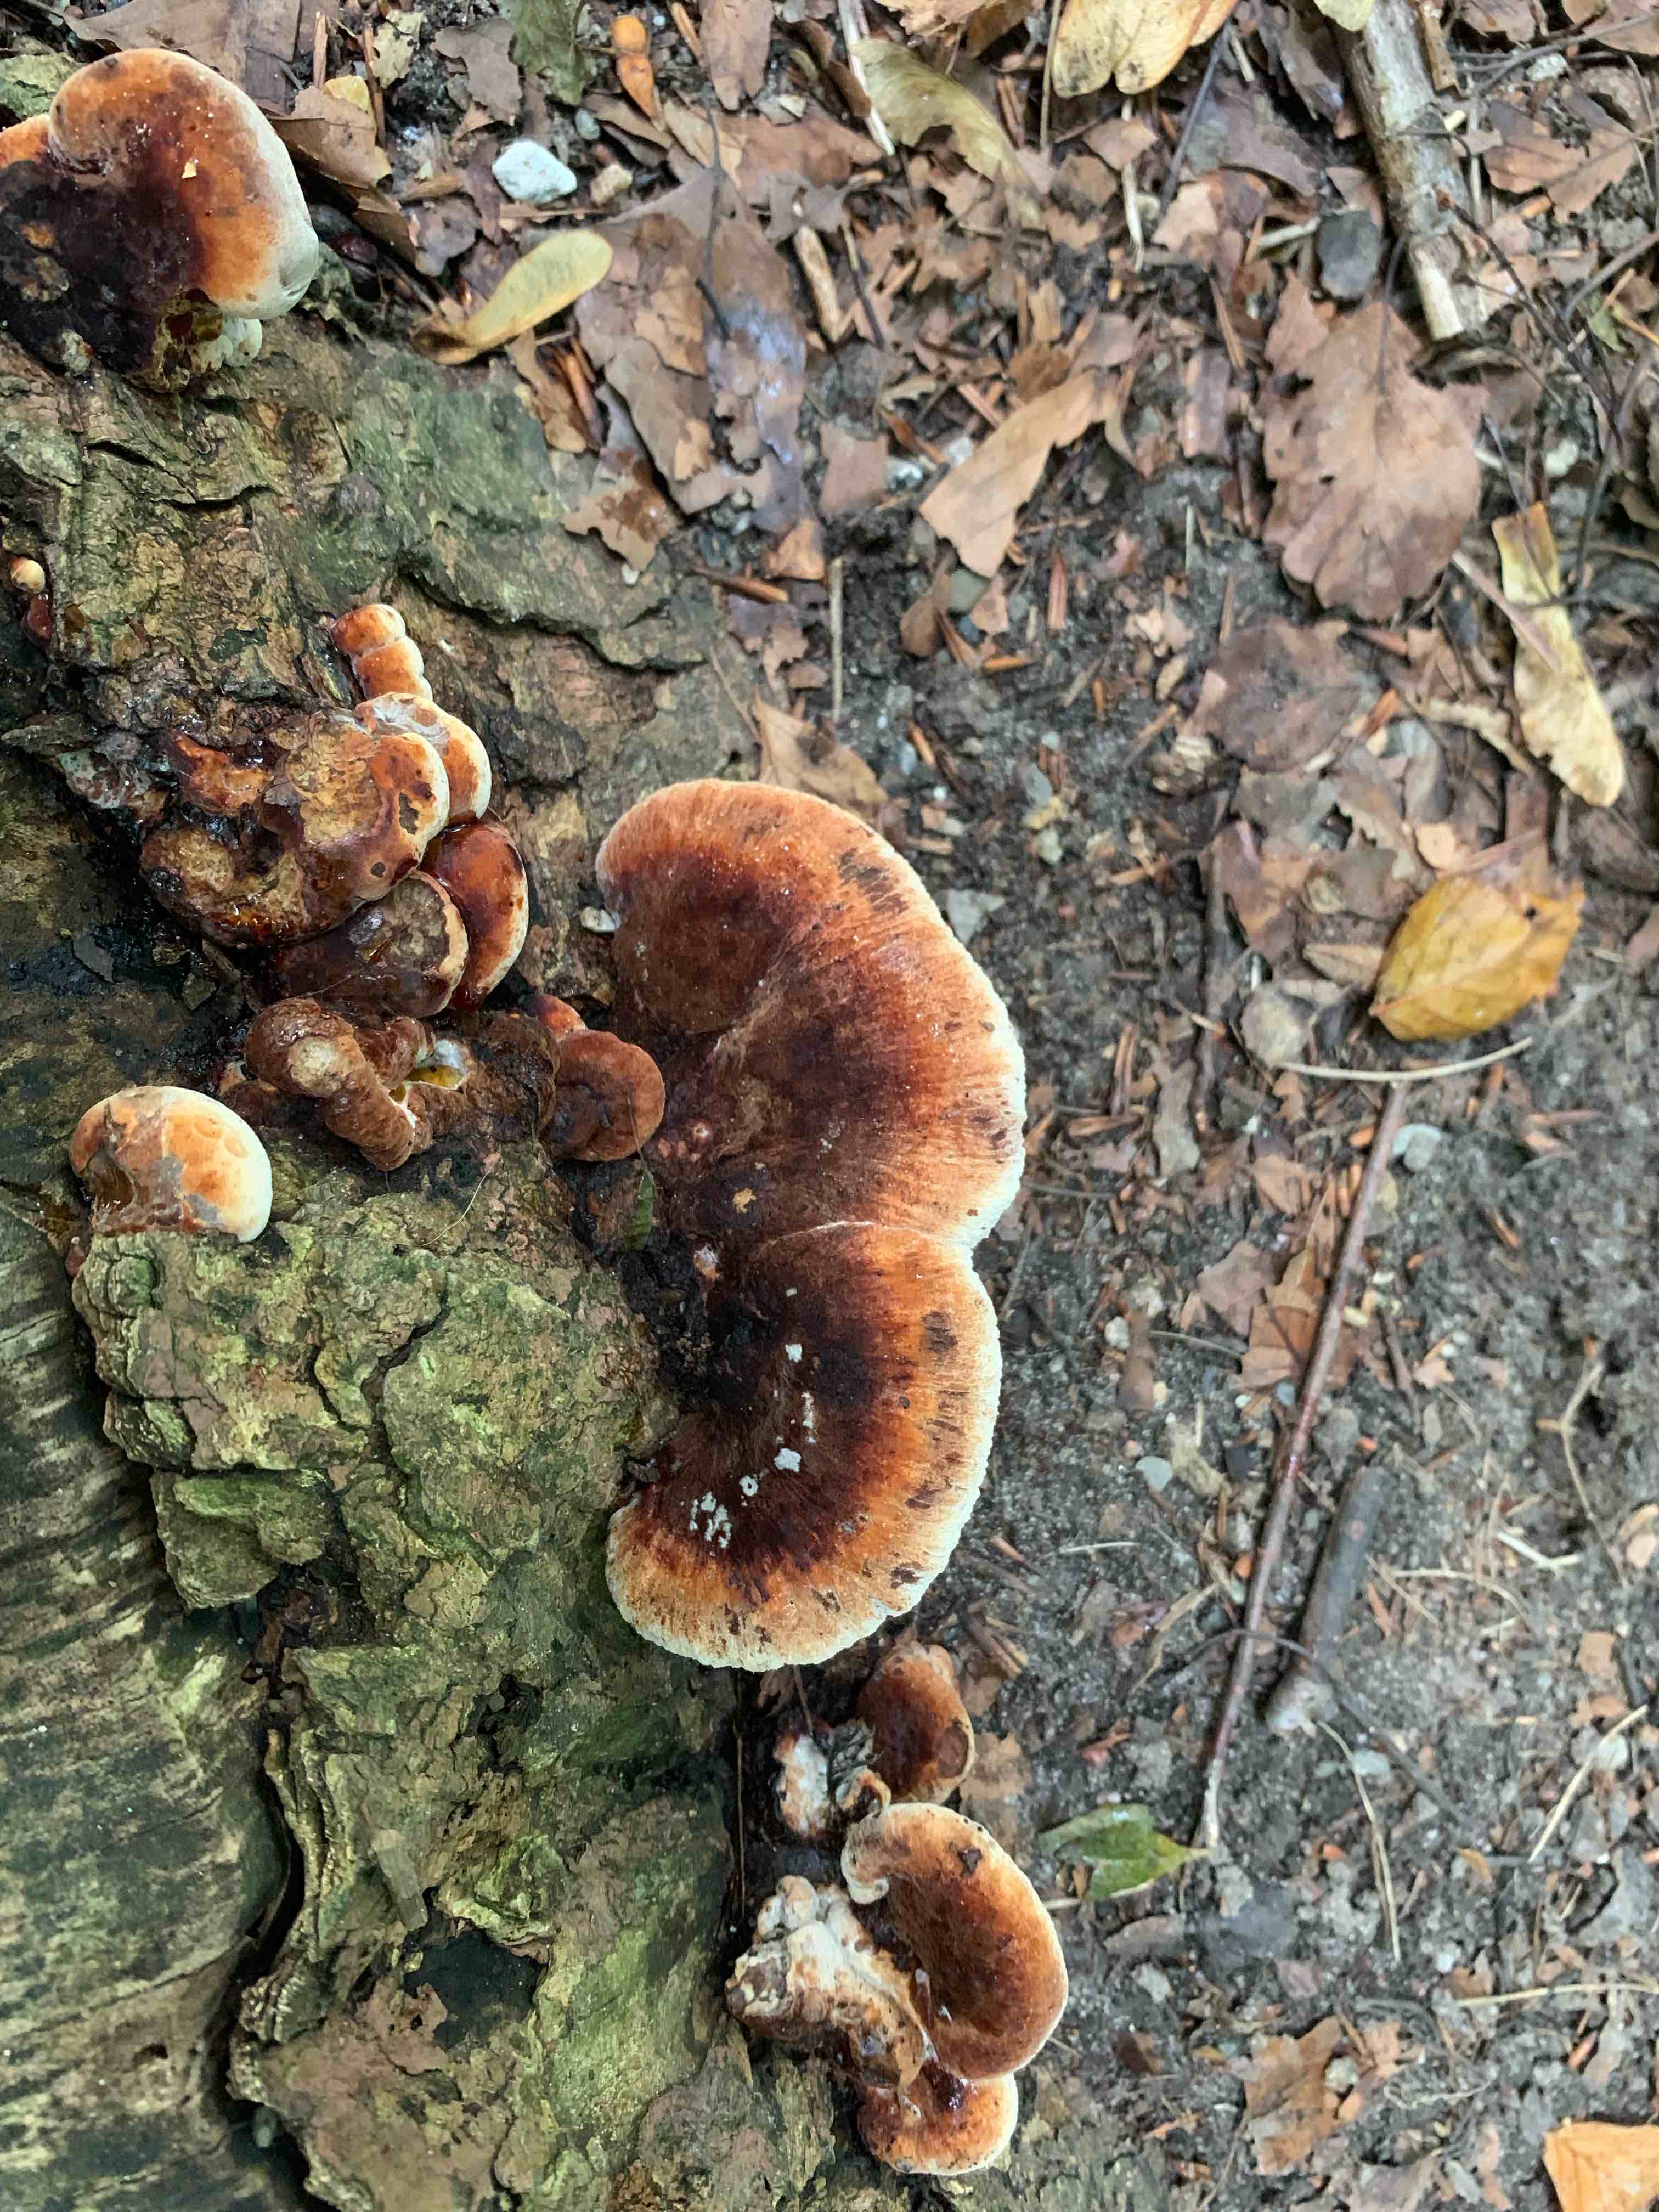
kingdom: Fungi
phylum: Basidiomycota
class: Agaricomycetes
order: Polyporales
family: Ischnodermataceae
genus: Ischnoderma
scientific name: Ischnoderma resinosum
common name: løv-tjæreporesvamp
